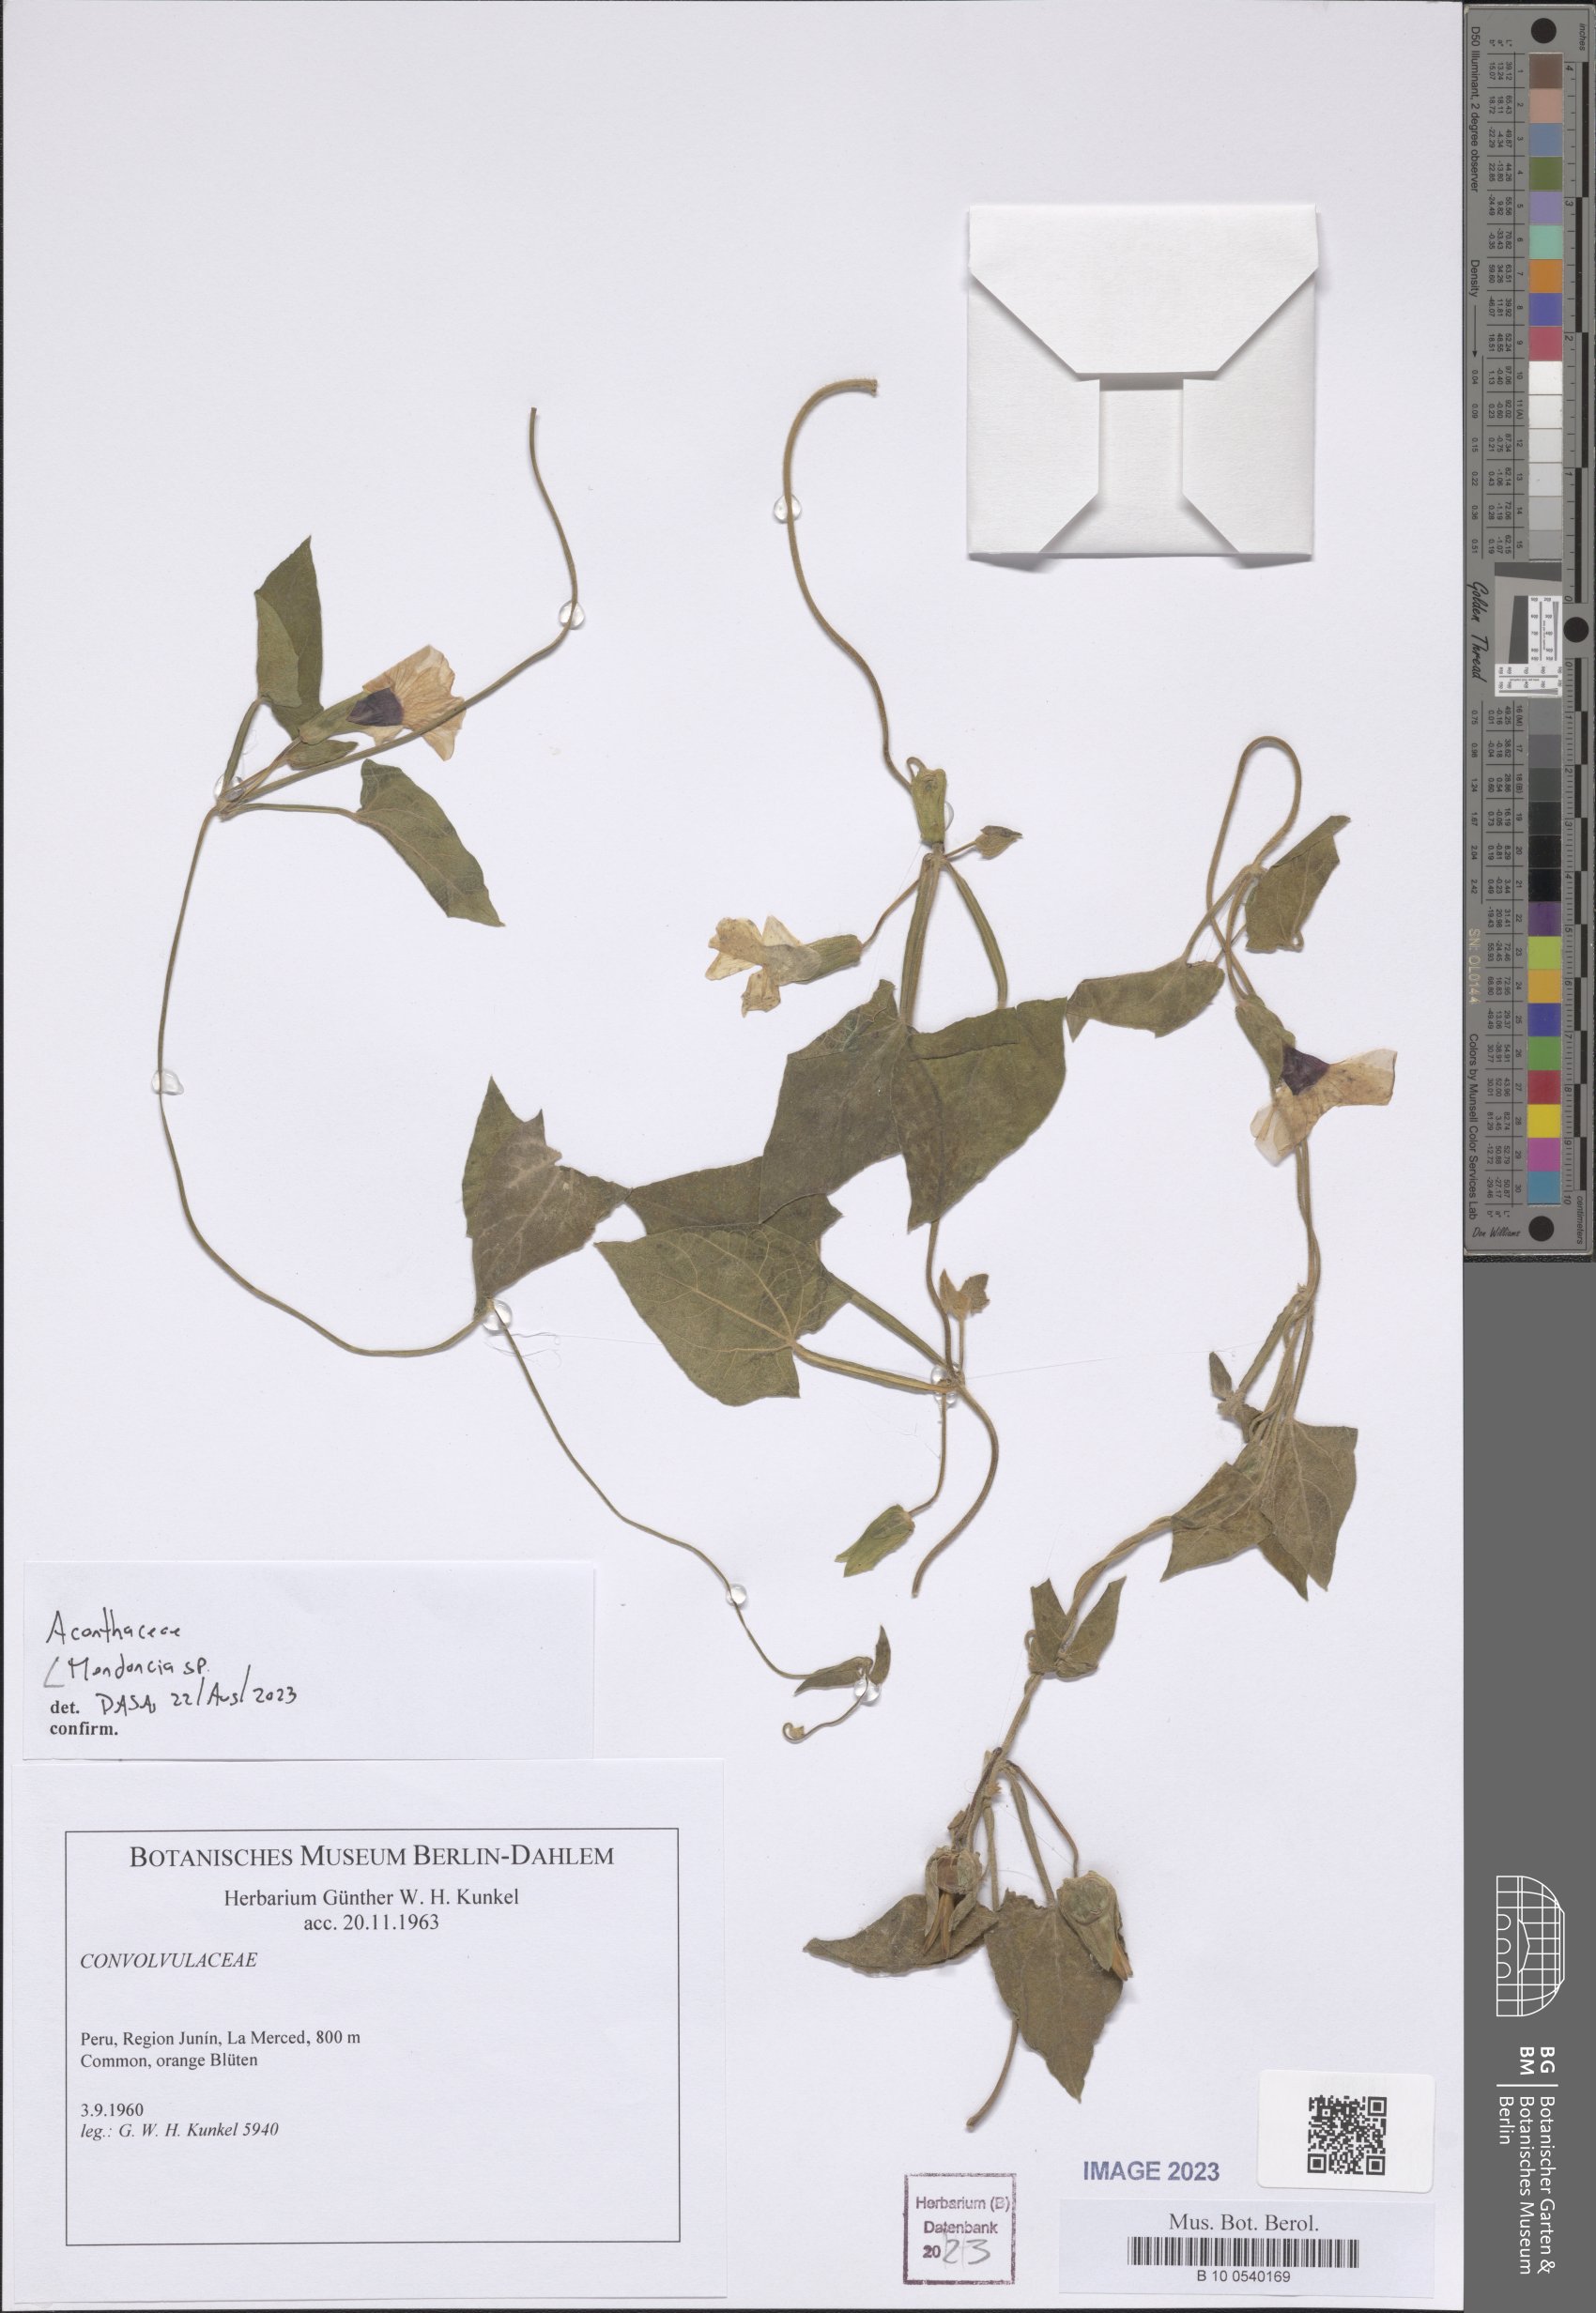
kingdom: Plantae
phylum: Tracheophyta
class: Magnoliopsida
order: Lamiales
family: Acanthaceae
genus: Mendoncia
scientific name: Mendoncia
